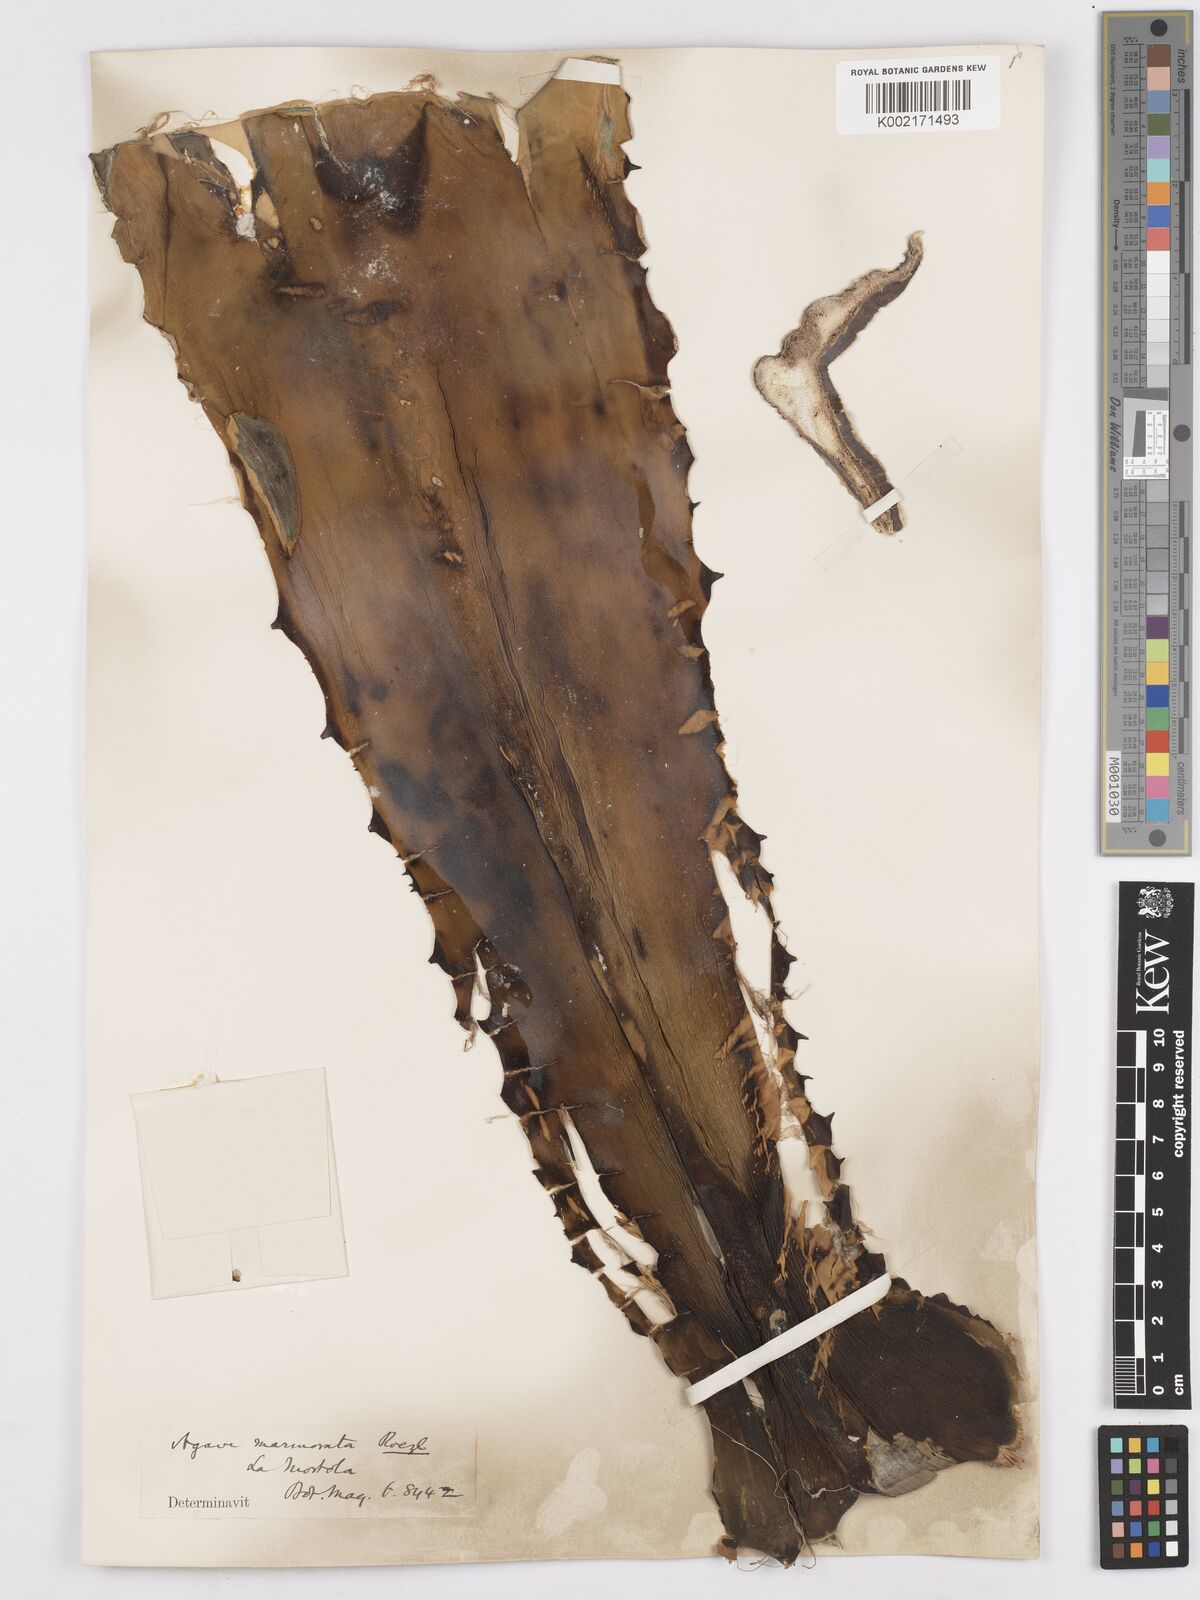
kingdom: Plantae
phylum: Tracheophyta
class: Liliopsida
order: Asparagales
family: Asparagaceae
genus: Agave
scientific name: Agave marmorata
